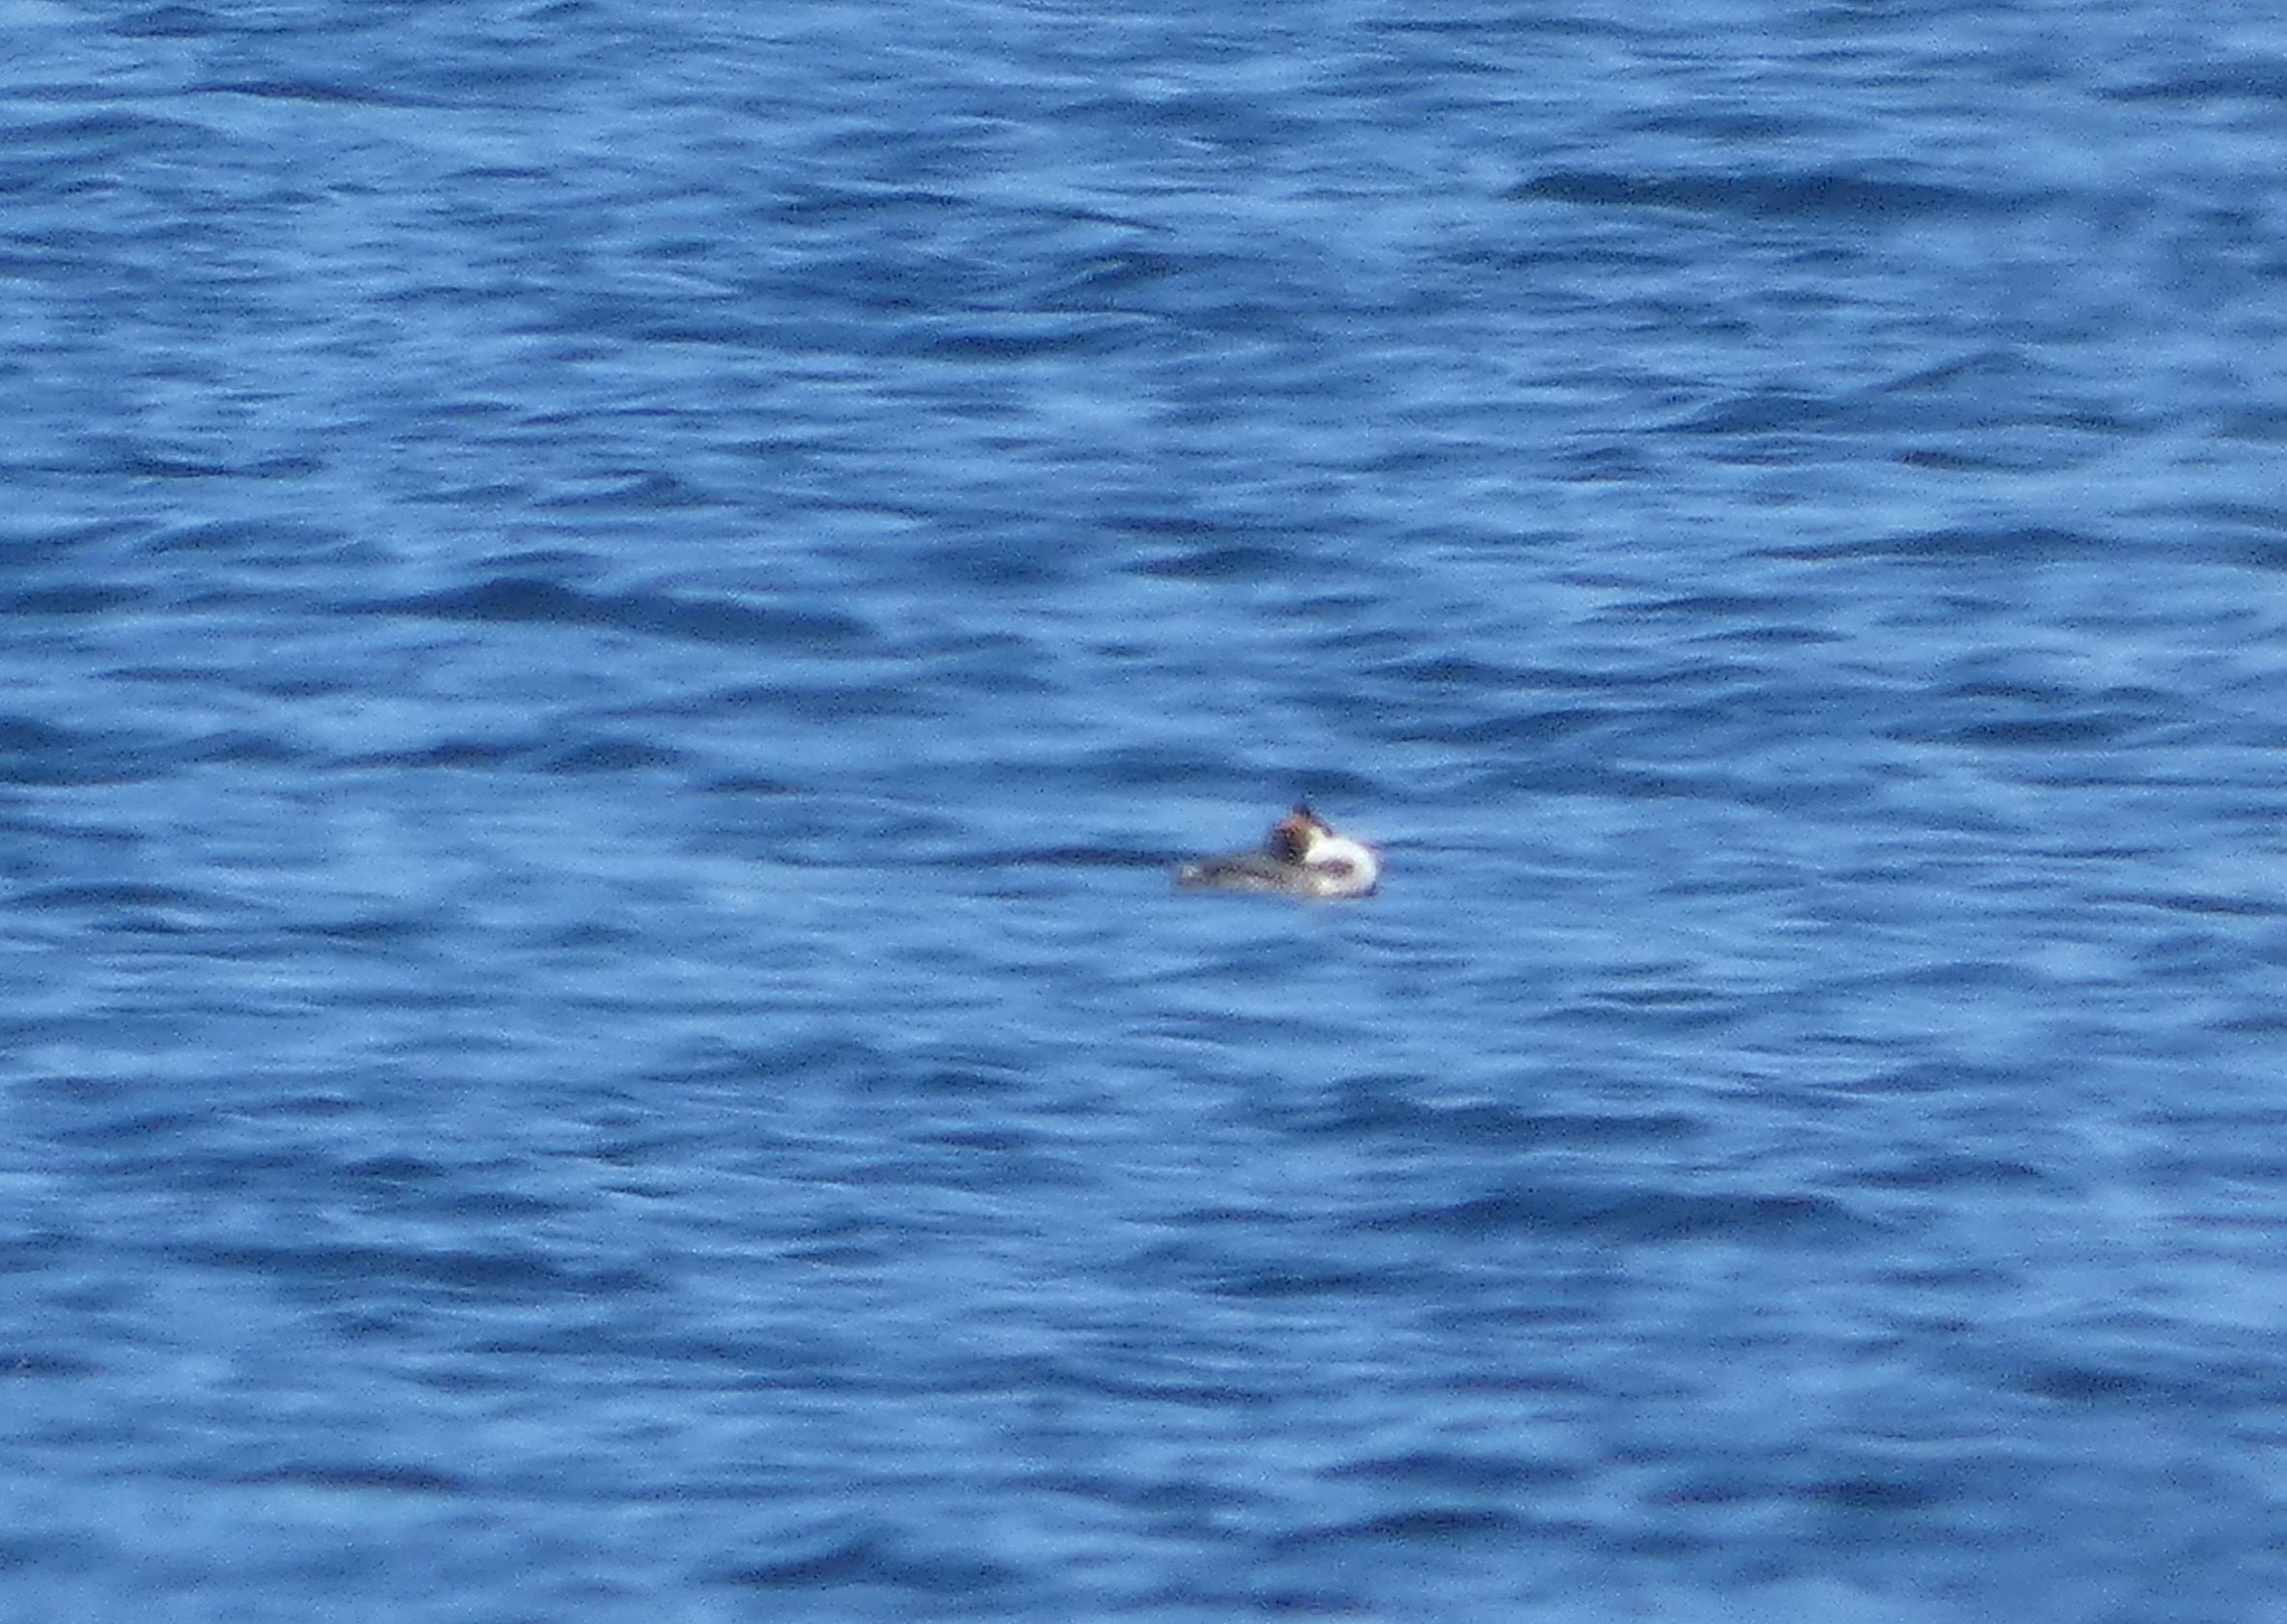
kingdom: Animalia
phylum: Chordata
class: Aves
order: Podicipediformes
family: Podicipedidae
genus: Podiceps
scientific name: Podiceps cristatus
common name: Toppet lappedykker
